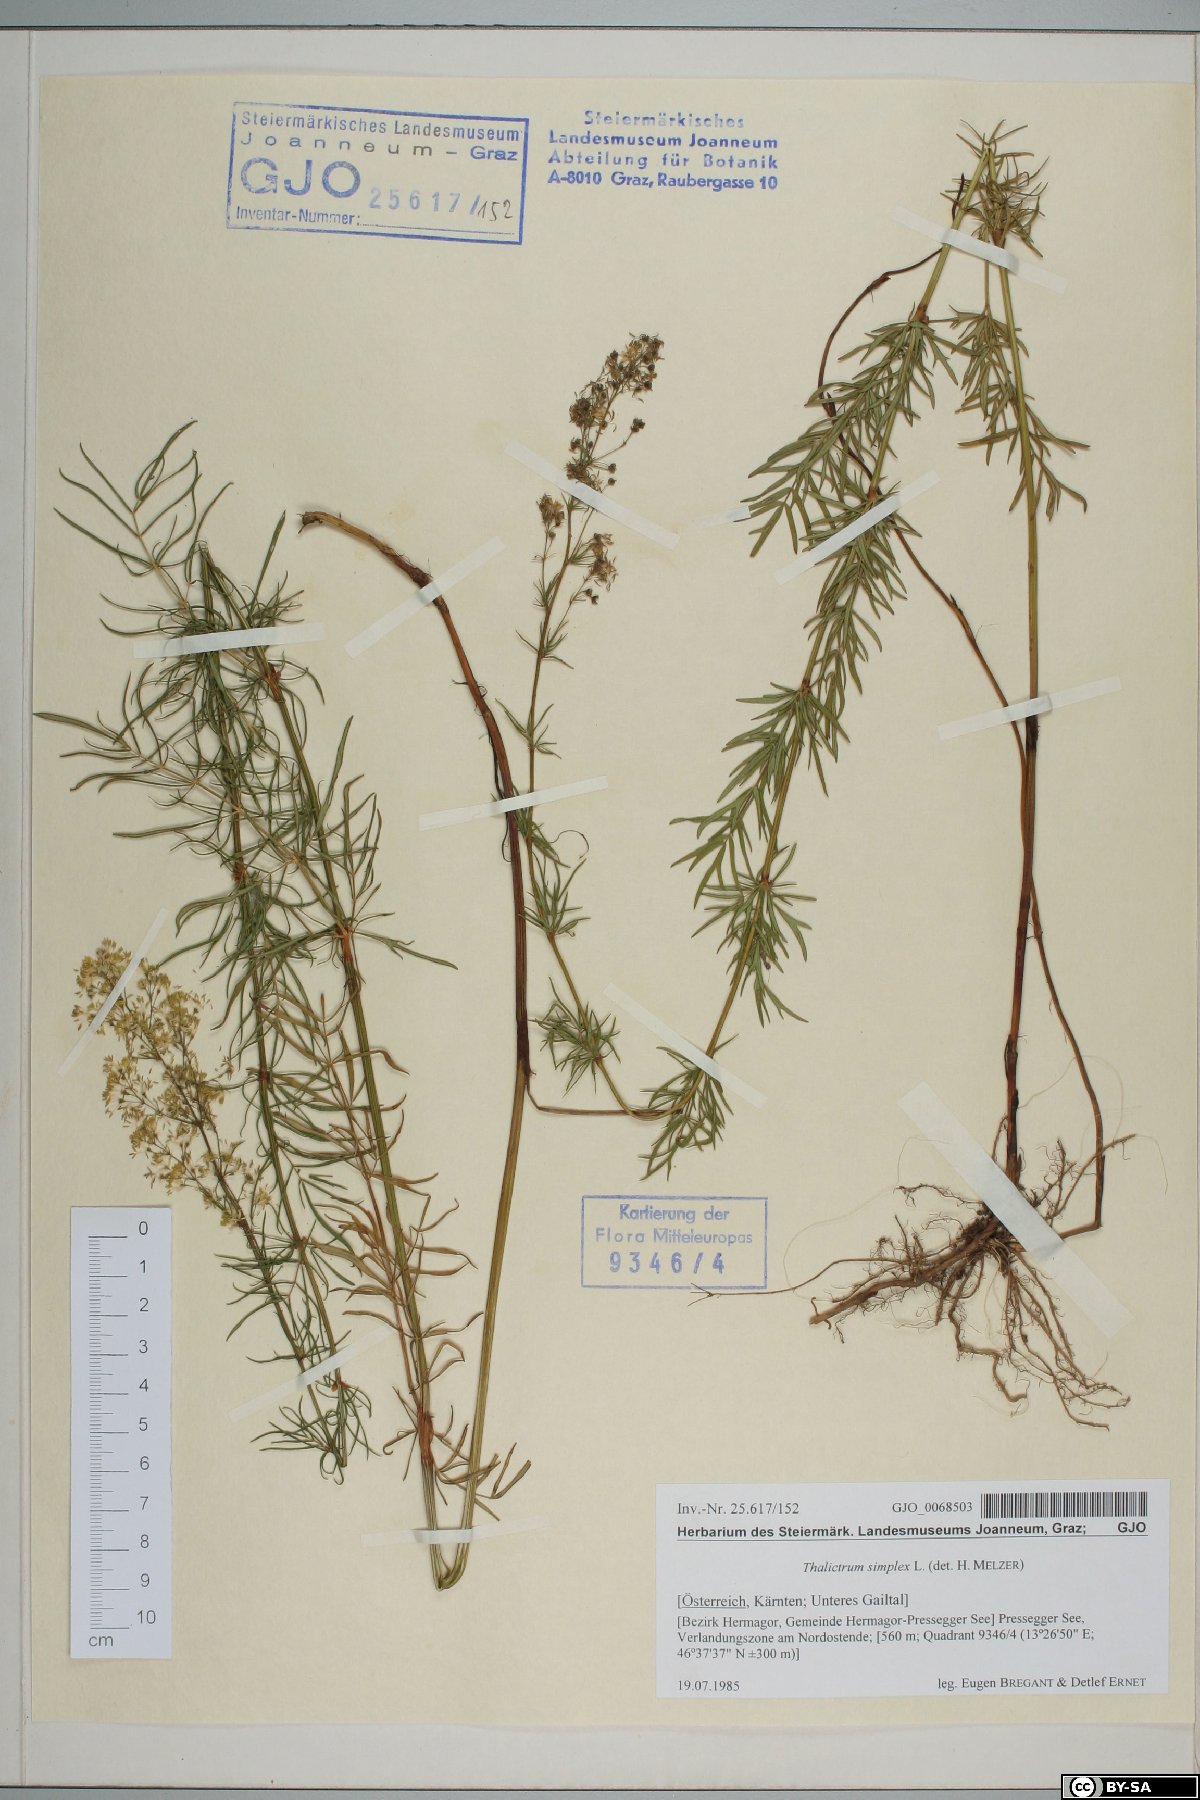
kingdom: Plantae
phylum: Tracheophyta
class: Magnoliopsida
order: Ranunculales
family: Ranunculaceae
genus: Thalictrum
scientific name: Thalictrum simplex
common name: Small meadow-rue
